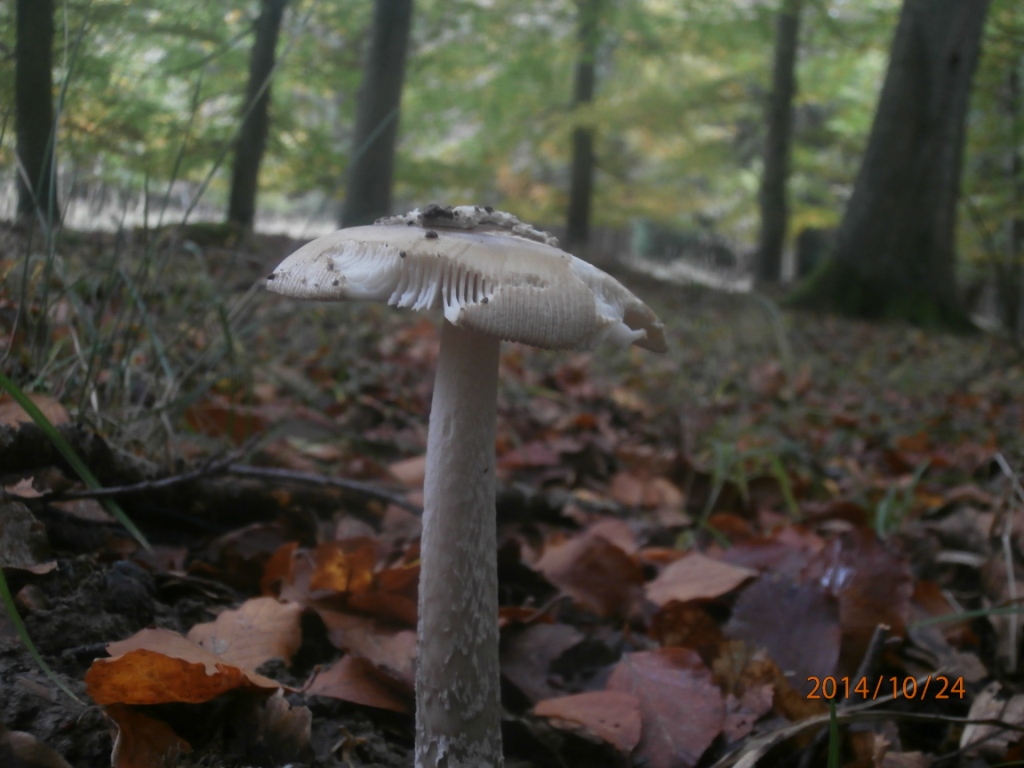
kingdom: Fungi
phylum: Basidiomycota
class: Agaricomycetes
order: Agaricales
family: Amanitaceae
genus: Amanita
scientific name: Amanita ceciliae
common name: stor kam-fluesvamp
